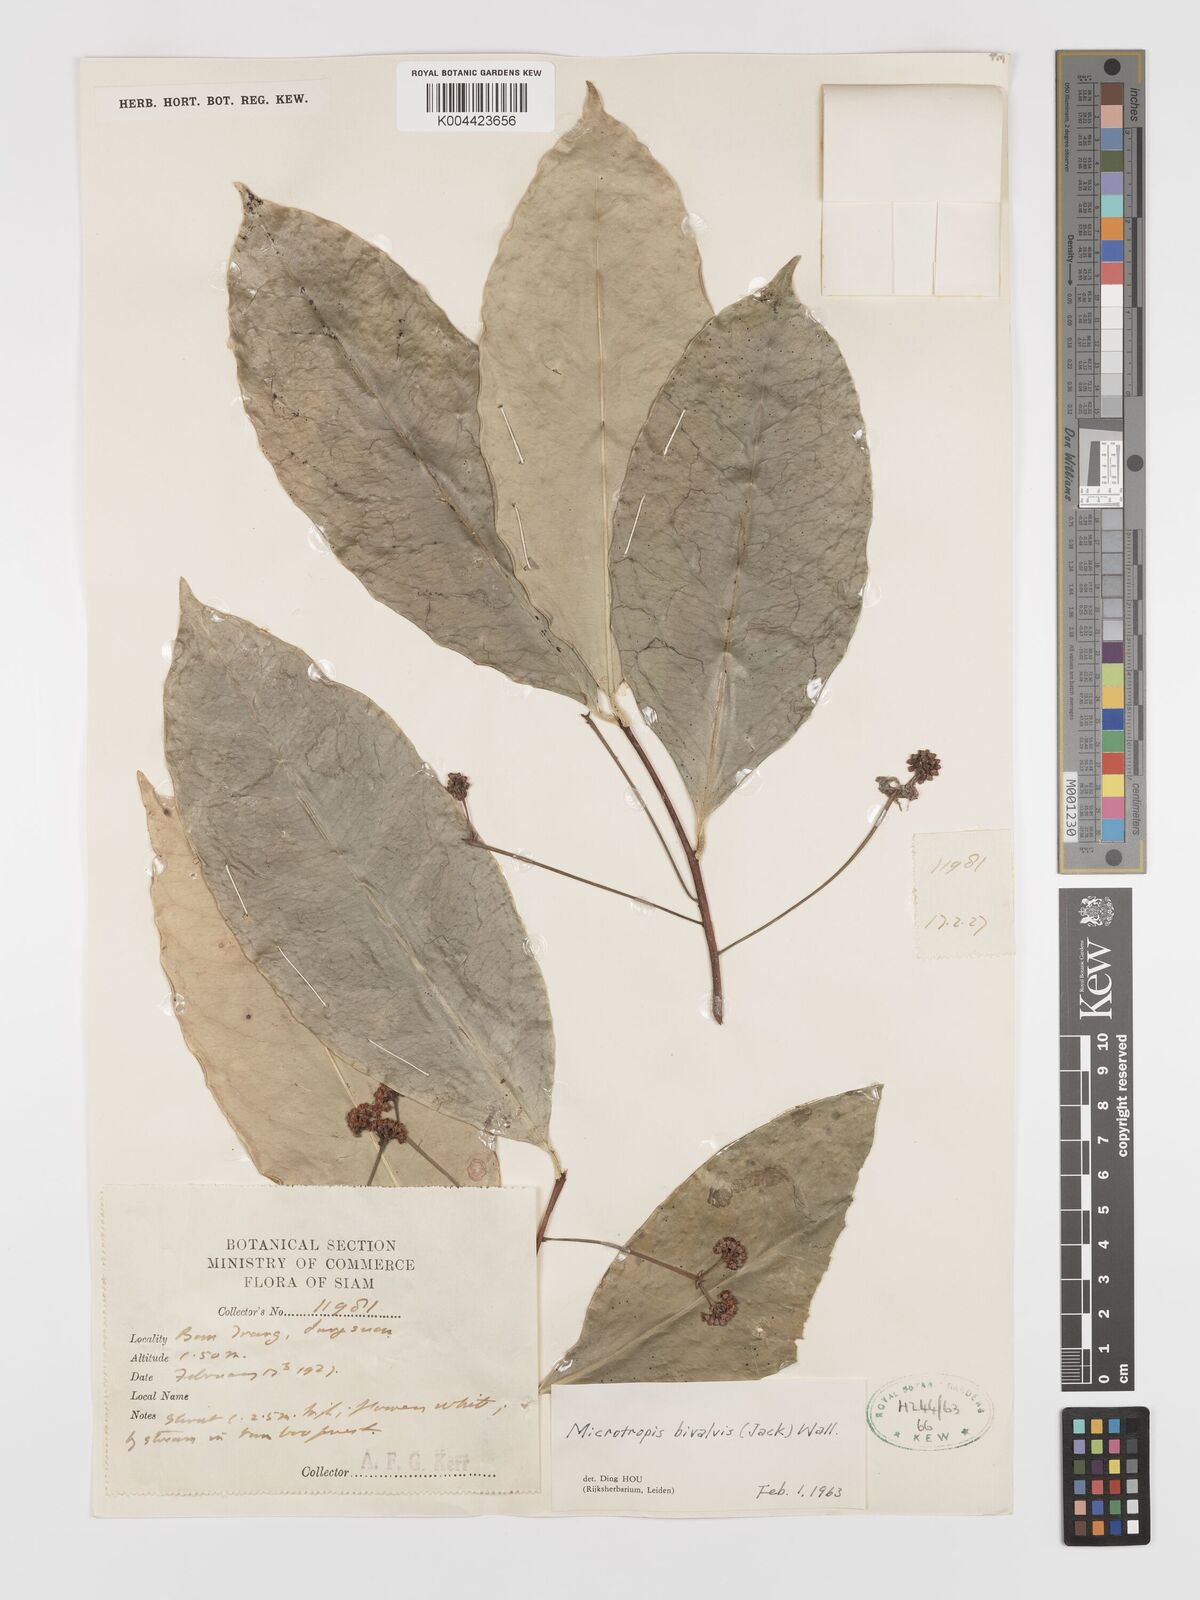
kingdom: Plantae
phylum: Tracheophyta
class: Magnoliopsida
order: Celastrales
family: Celastraceae
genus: Microtropis
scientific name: Microtropis bivalvis
